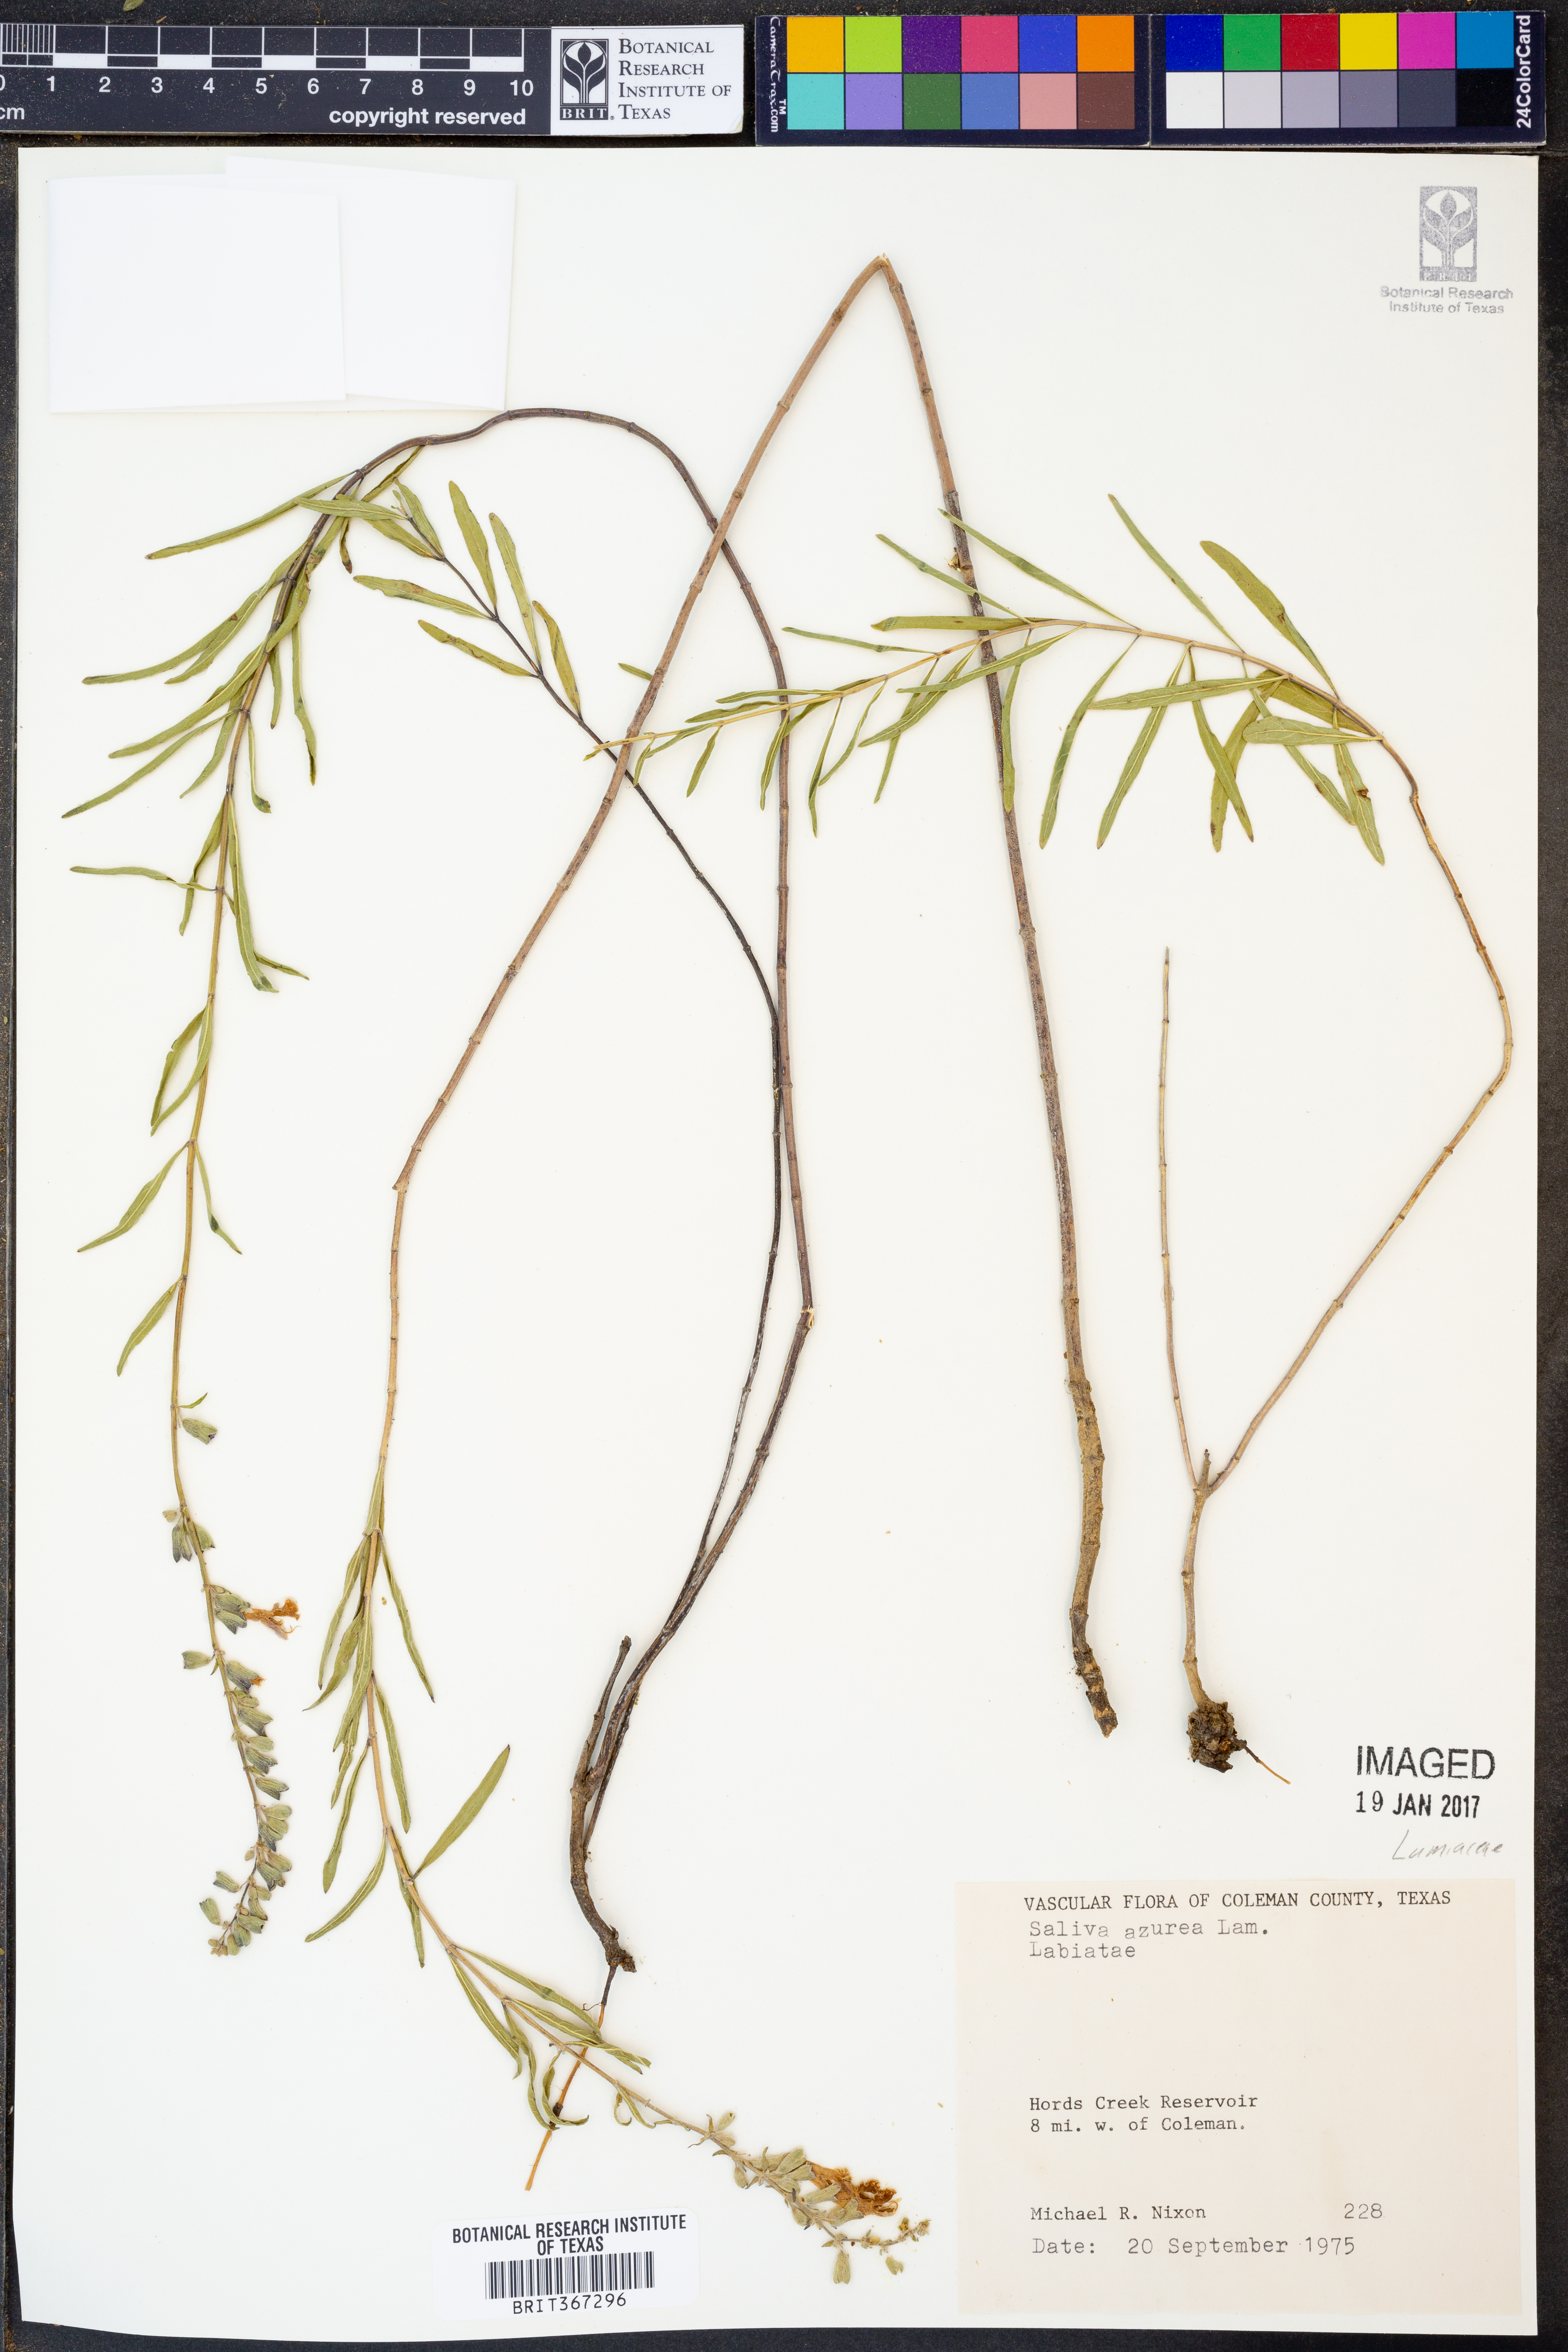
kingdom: Plantae
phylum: Tracheophyta
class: Magnoliopsida
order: Lamiales
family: Lamiaceae
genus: Salvia
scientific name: Salvia azurea
